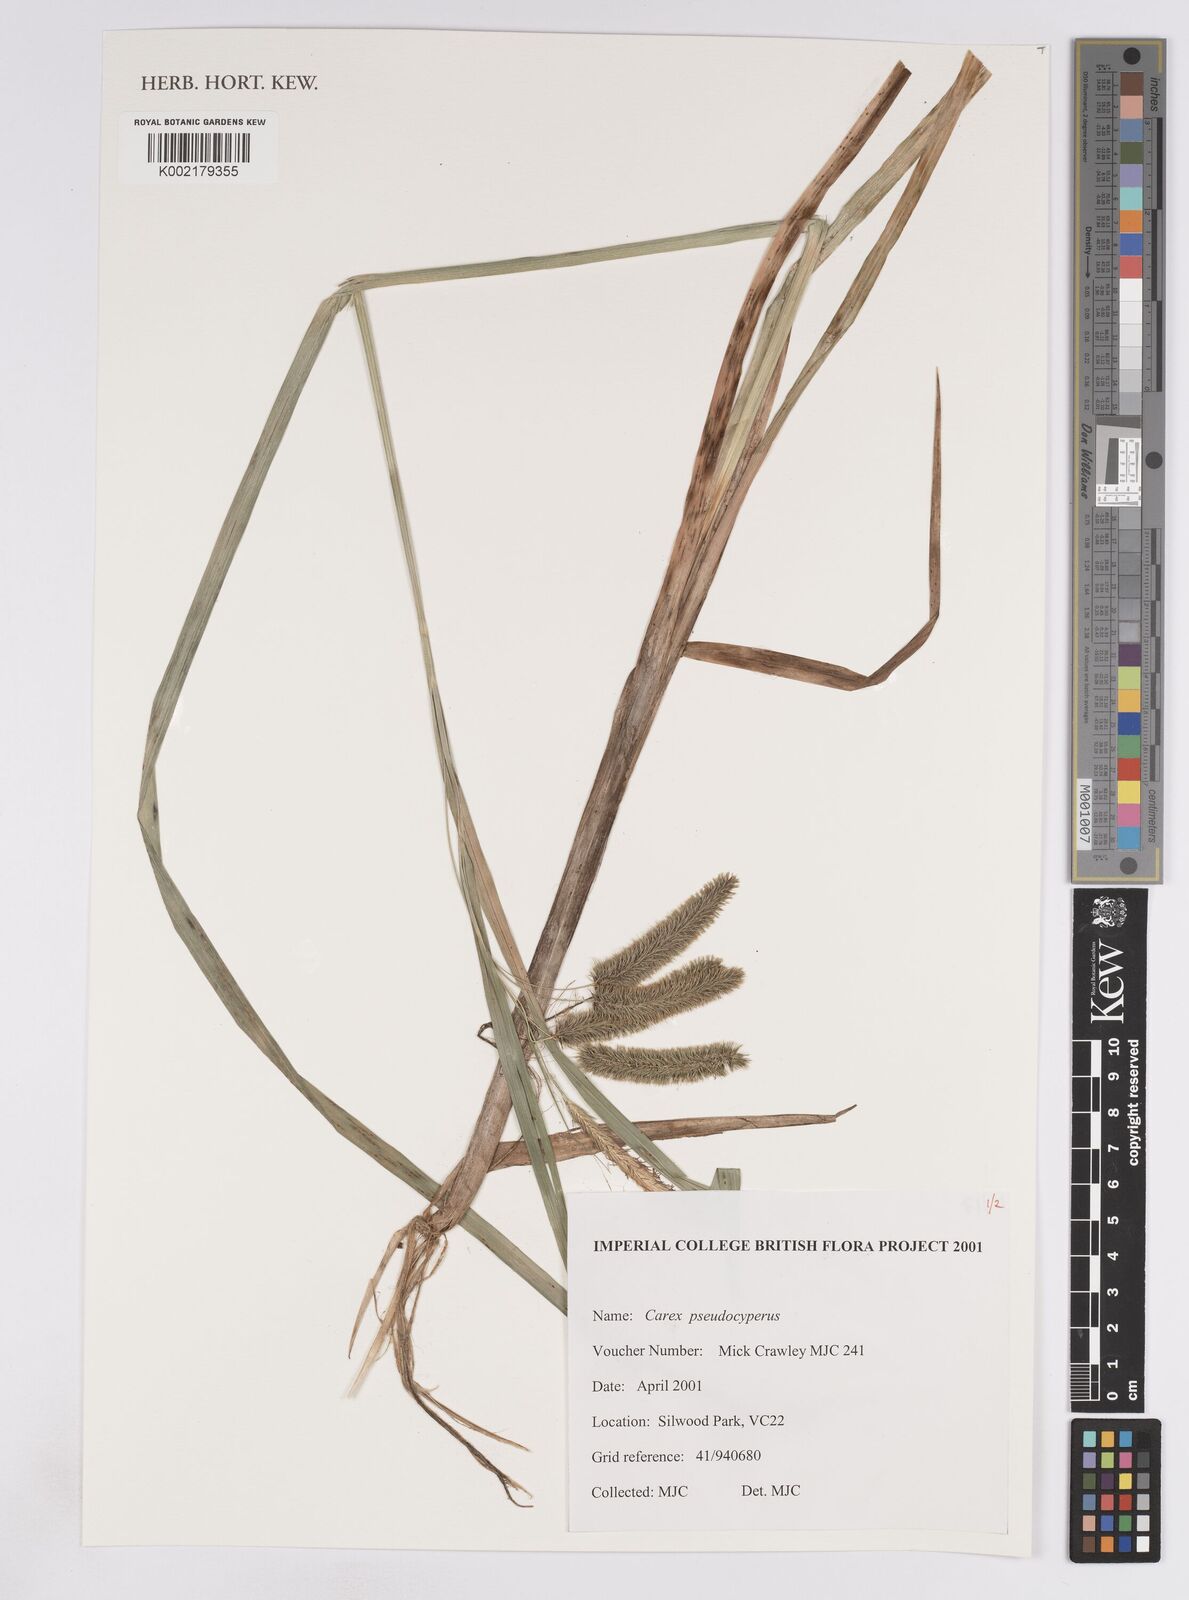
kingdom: Plantae
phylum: Tracheophyta
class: Liliopsida
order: Poales
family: Cyperaceae
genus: Carex
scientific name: Carex pseudocyperus
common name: Cyperus sedge
